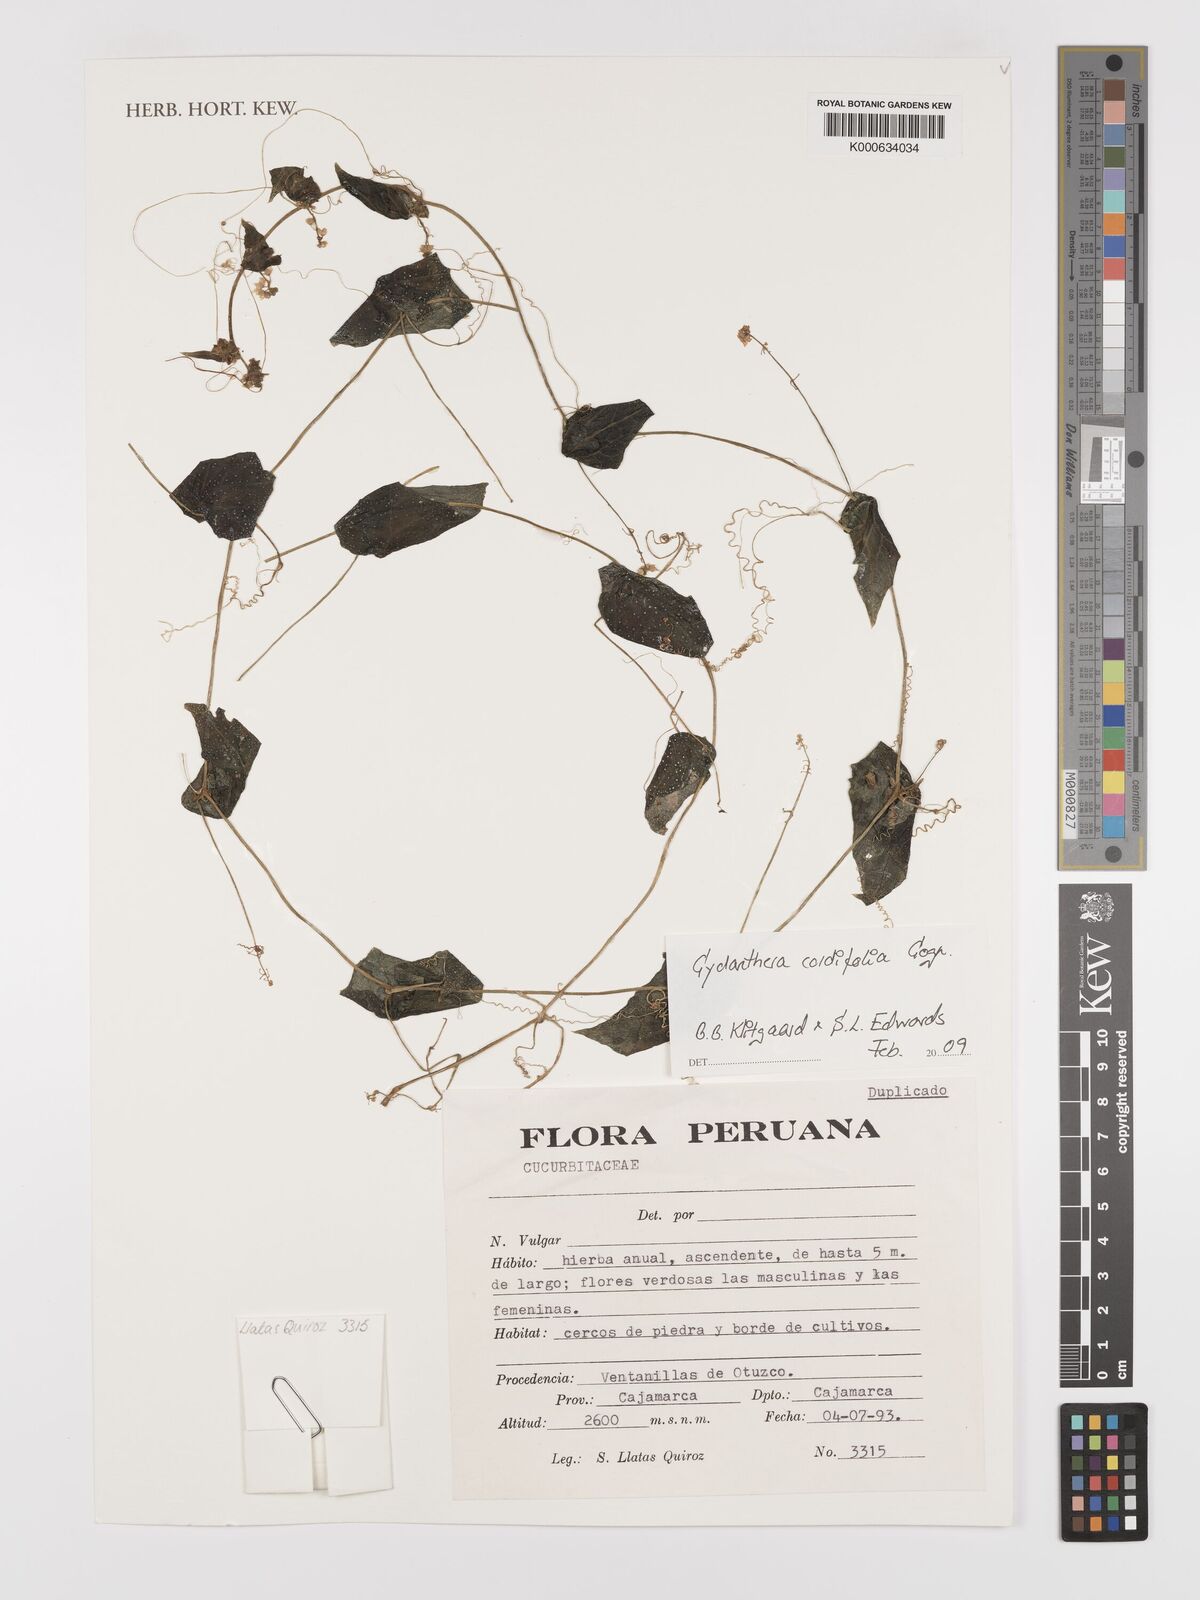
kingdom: Plantae
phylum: Tracheophyta
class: Magnoliopsida
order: Cucurbitales
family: Cucurbitaceae
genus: Cyclanthera
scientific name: Cyclanthera cordifolia
